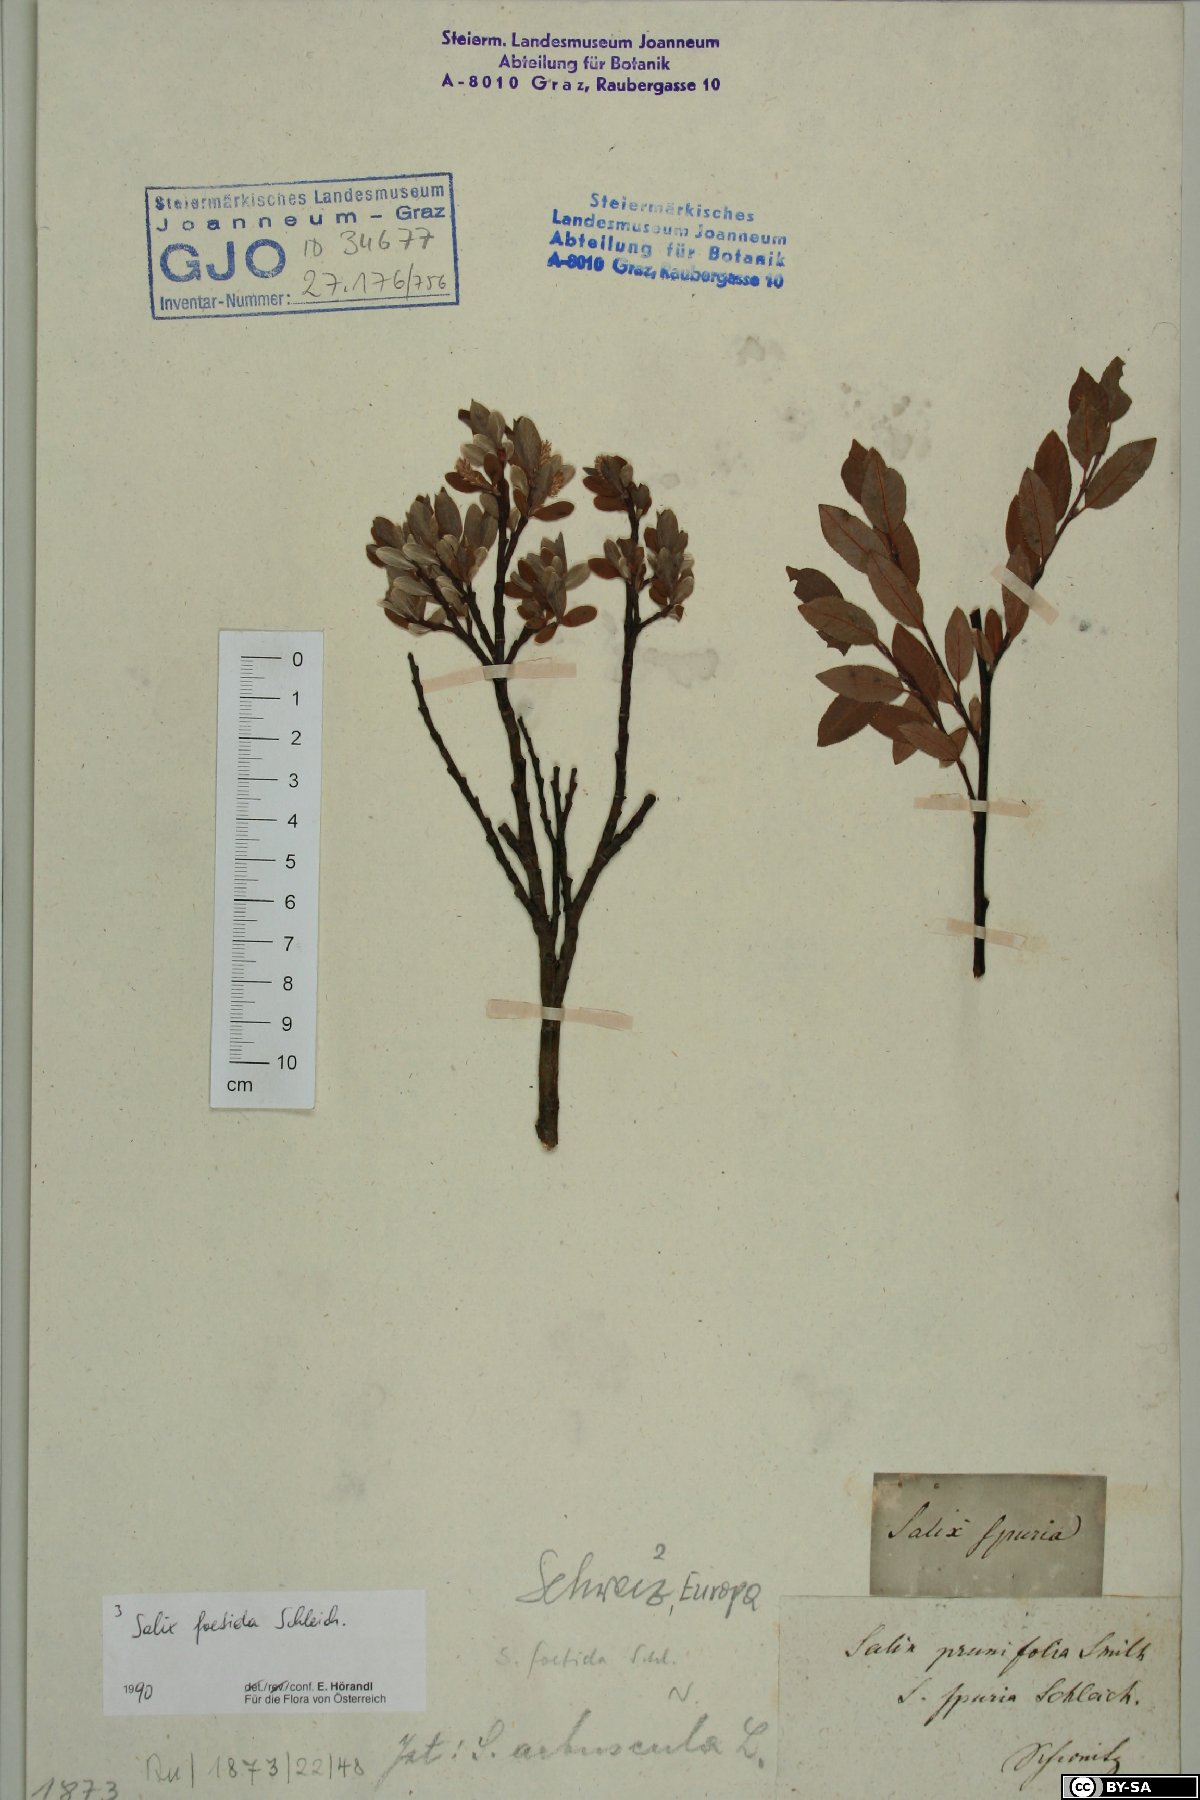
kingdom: Plantae
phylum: Tracheophyta
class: Magnoliopsida
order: Malpighiales
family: Salicaceae
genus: Salix
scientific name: Salix foetida
